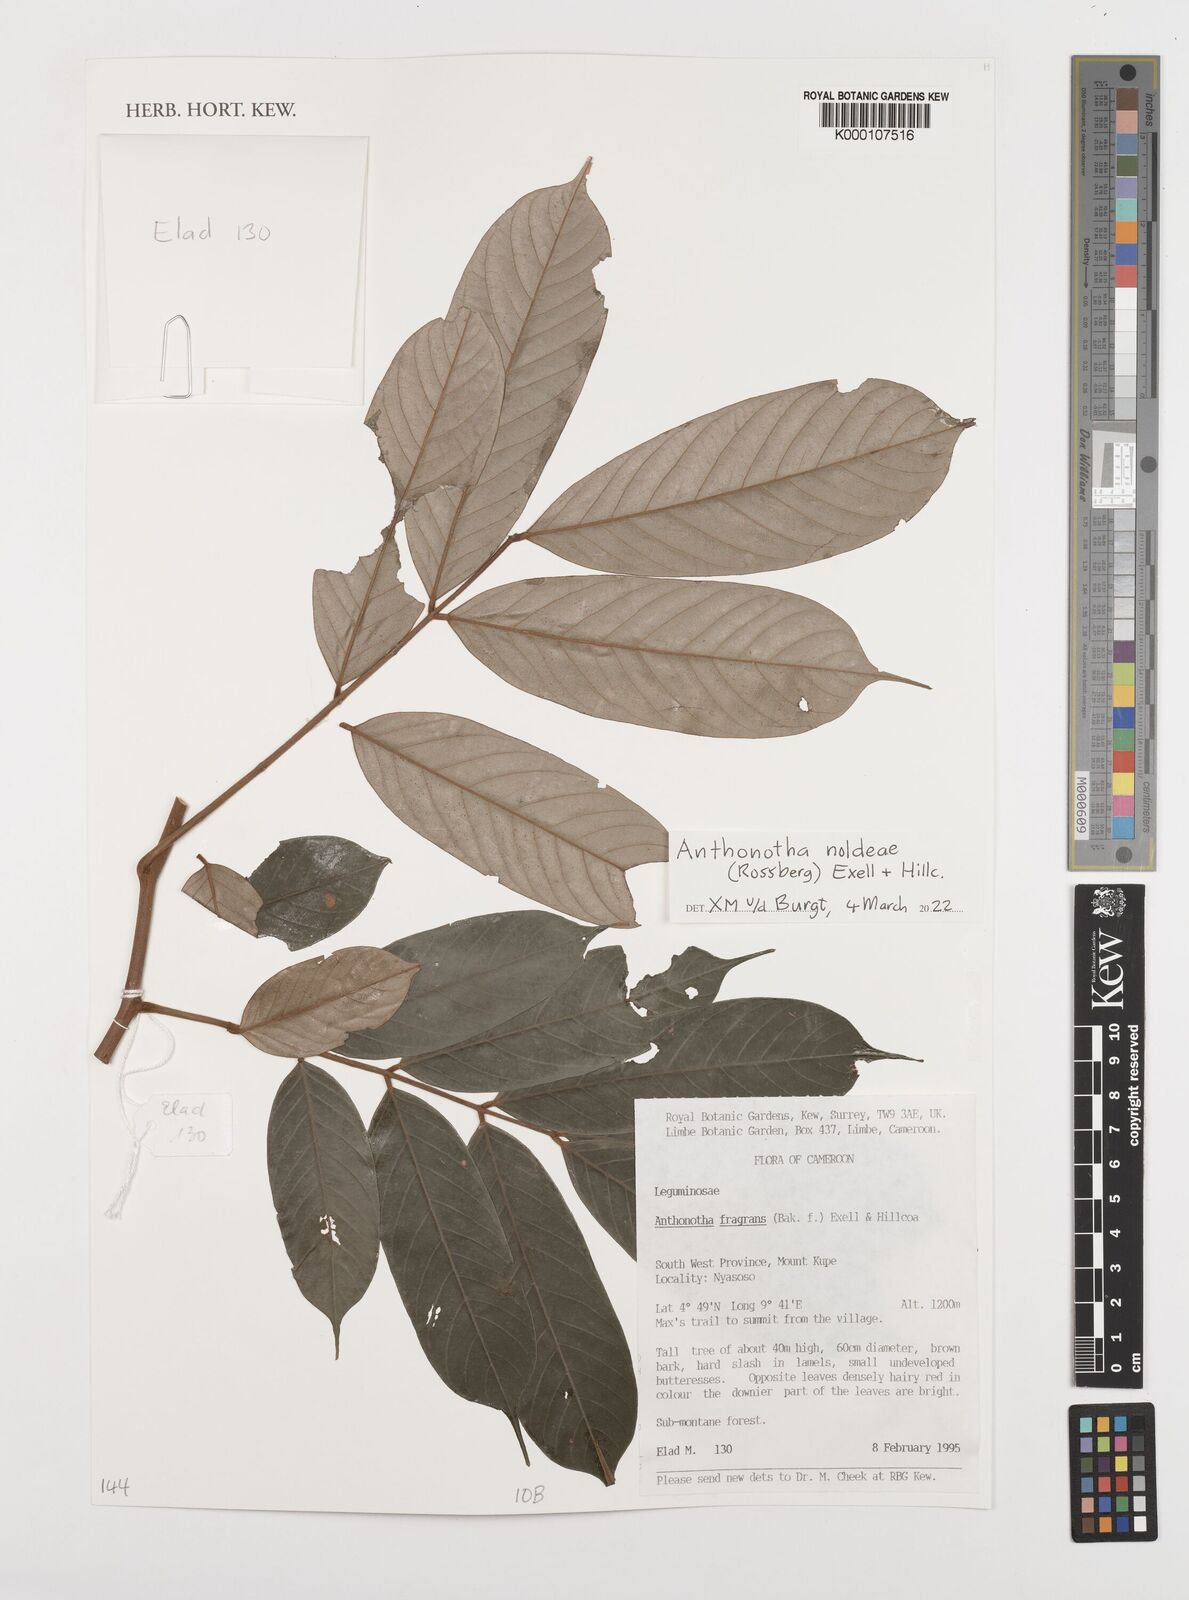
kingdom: Plantae
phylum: Tracheophyta
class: Magnoliopsida
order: Fabales
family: Fabaceae
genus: Anthonotha
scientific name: Anthonotha
